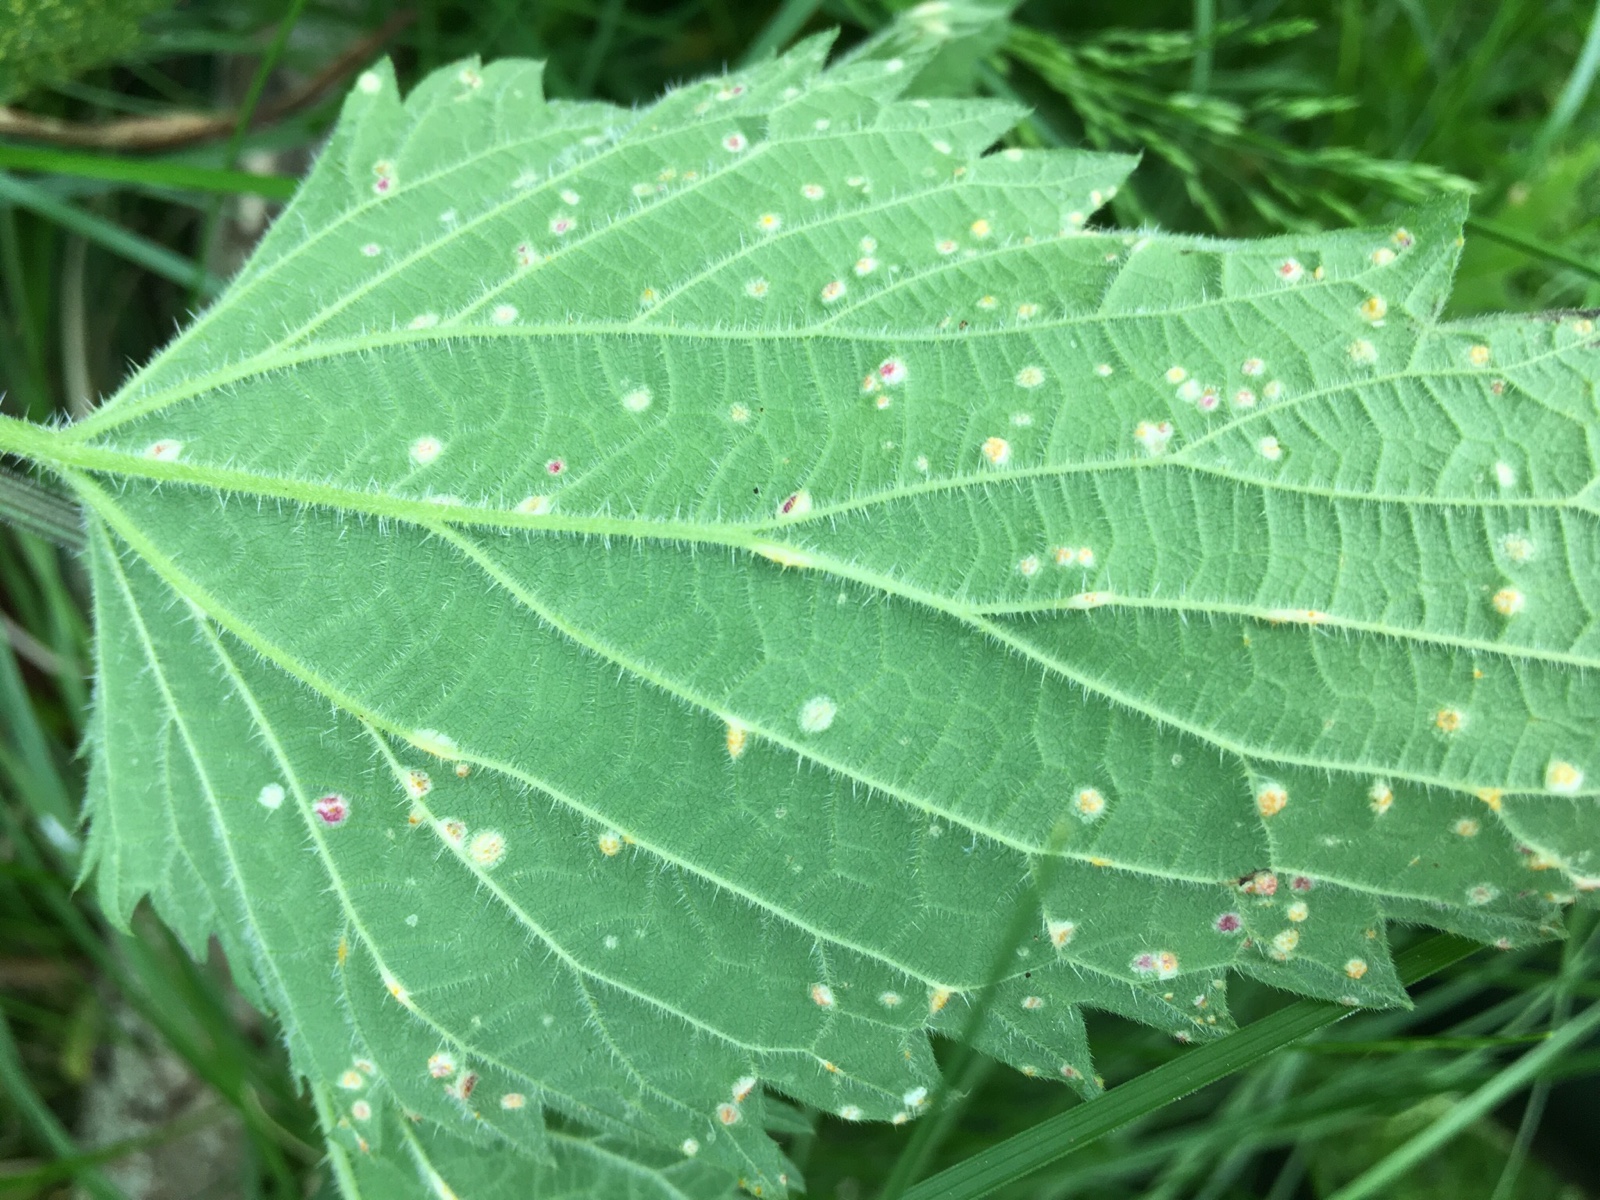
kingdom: Fungi
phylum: Basidiomycota
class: Pucciniomycetes
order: Pucciniales
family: Pucciniaceae
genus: Puccinia
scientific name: Puccinia urticata
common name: nældegalle-tvecellerust
